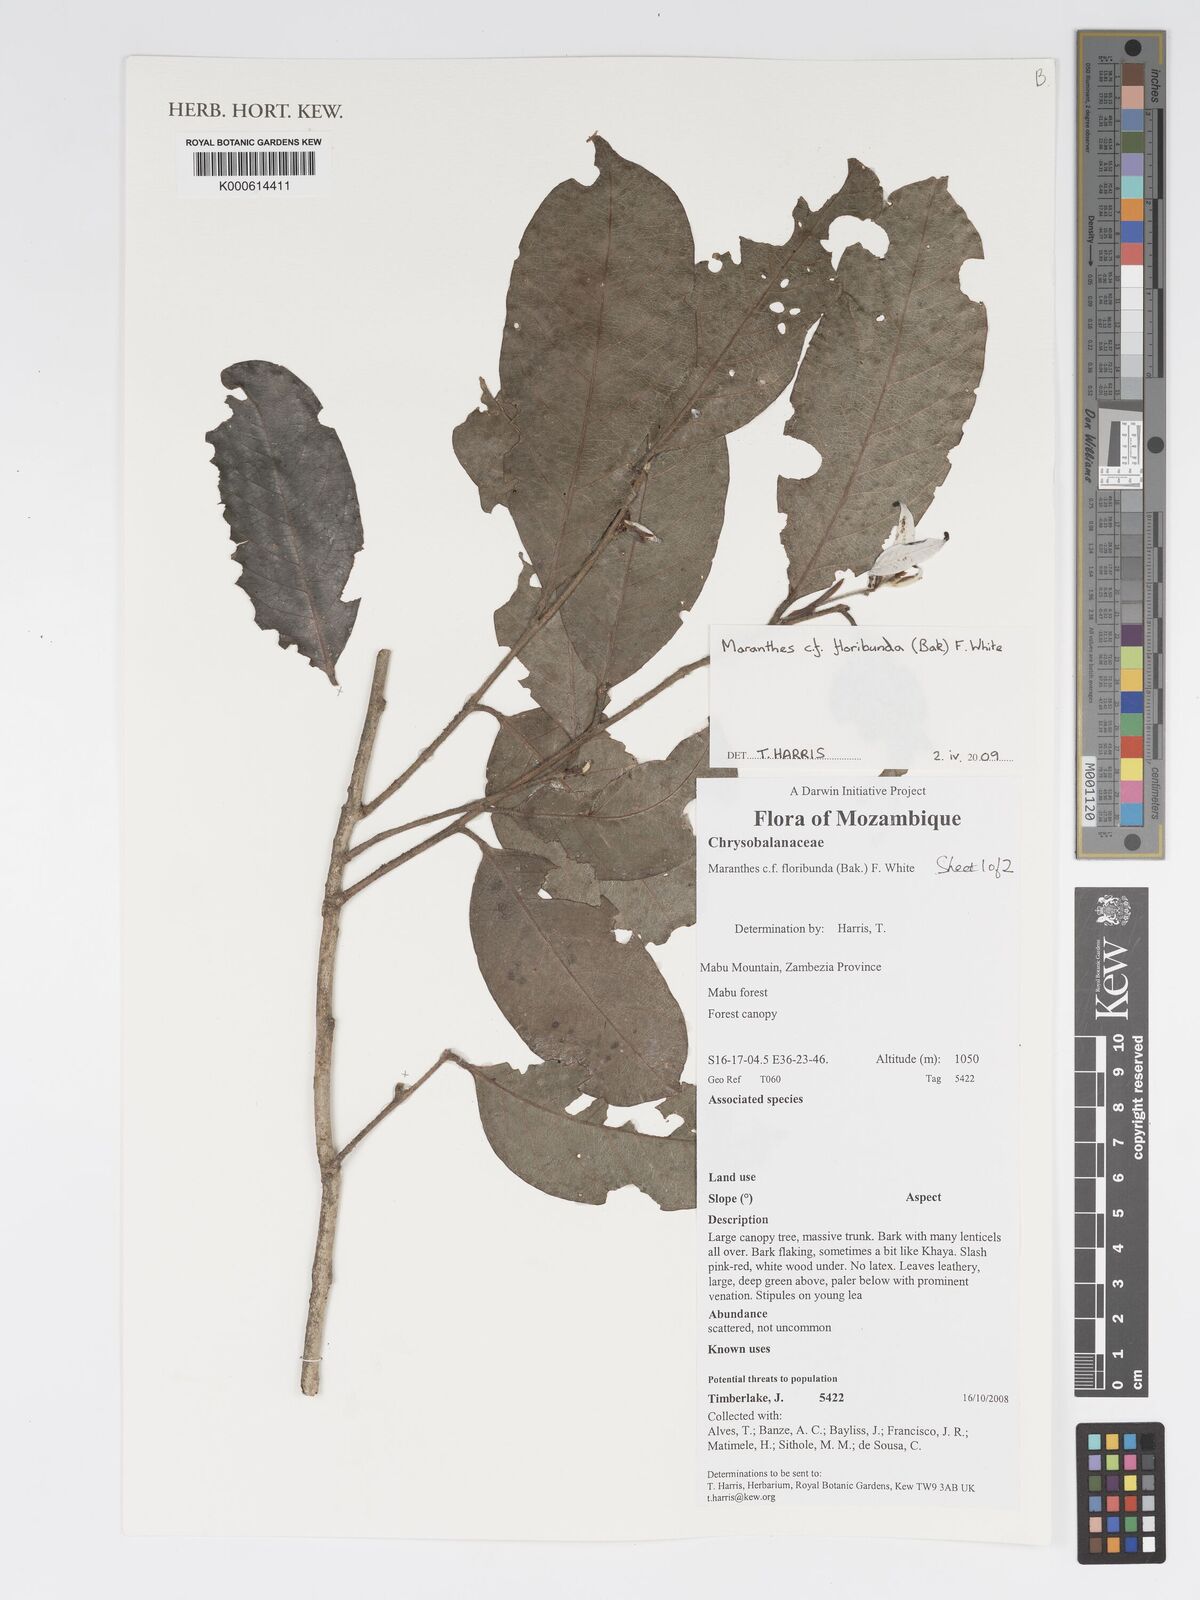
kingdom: Plantae
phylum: Tracheophyta
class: Magnoliopsida
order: Malpighiales
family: Chrysobalanaceae
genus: Maranthes
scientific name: Maranthes floribunda
